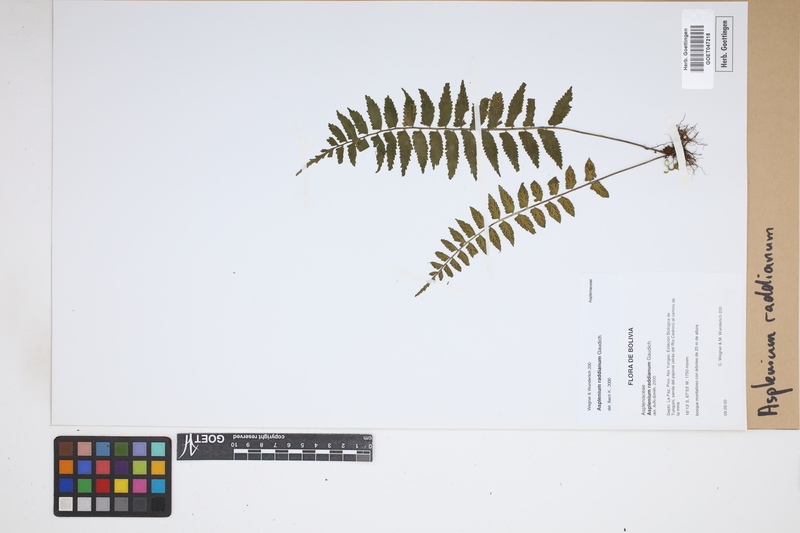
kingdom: Plantae
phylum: Tracheophyta
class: Polypodiopsida
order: Polypodiales
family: Aspleniaceae
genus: Asplenium
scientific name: Asplenium raddianum
